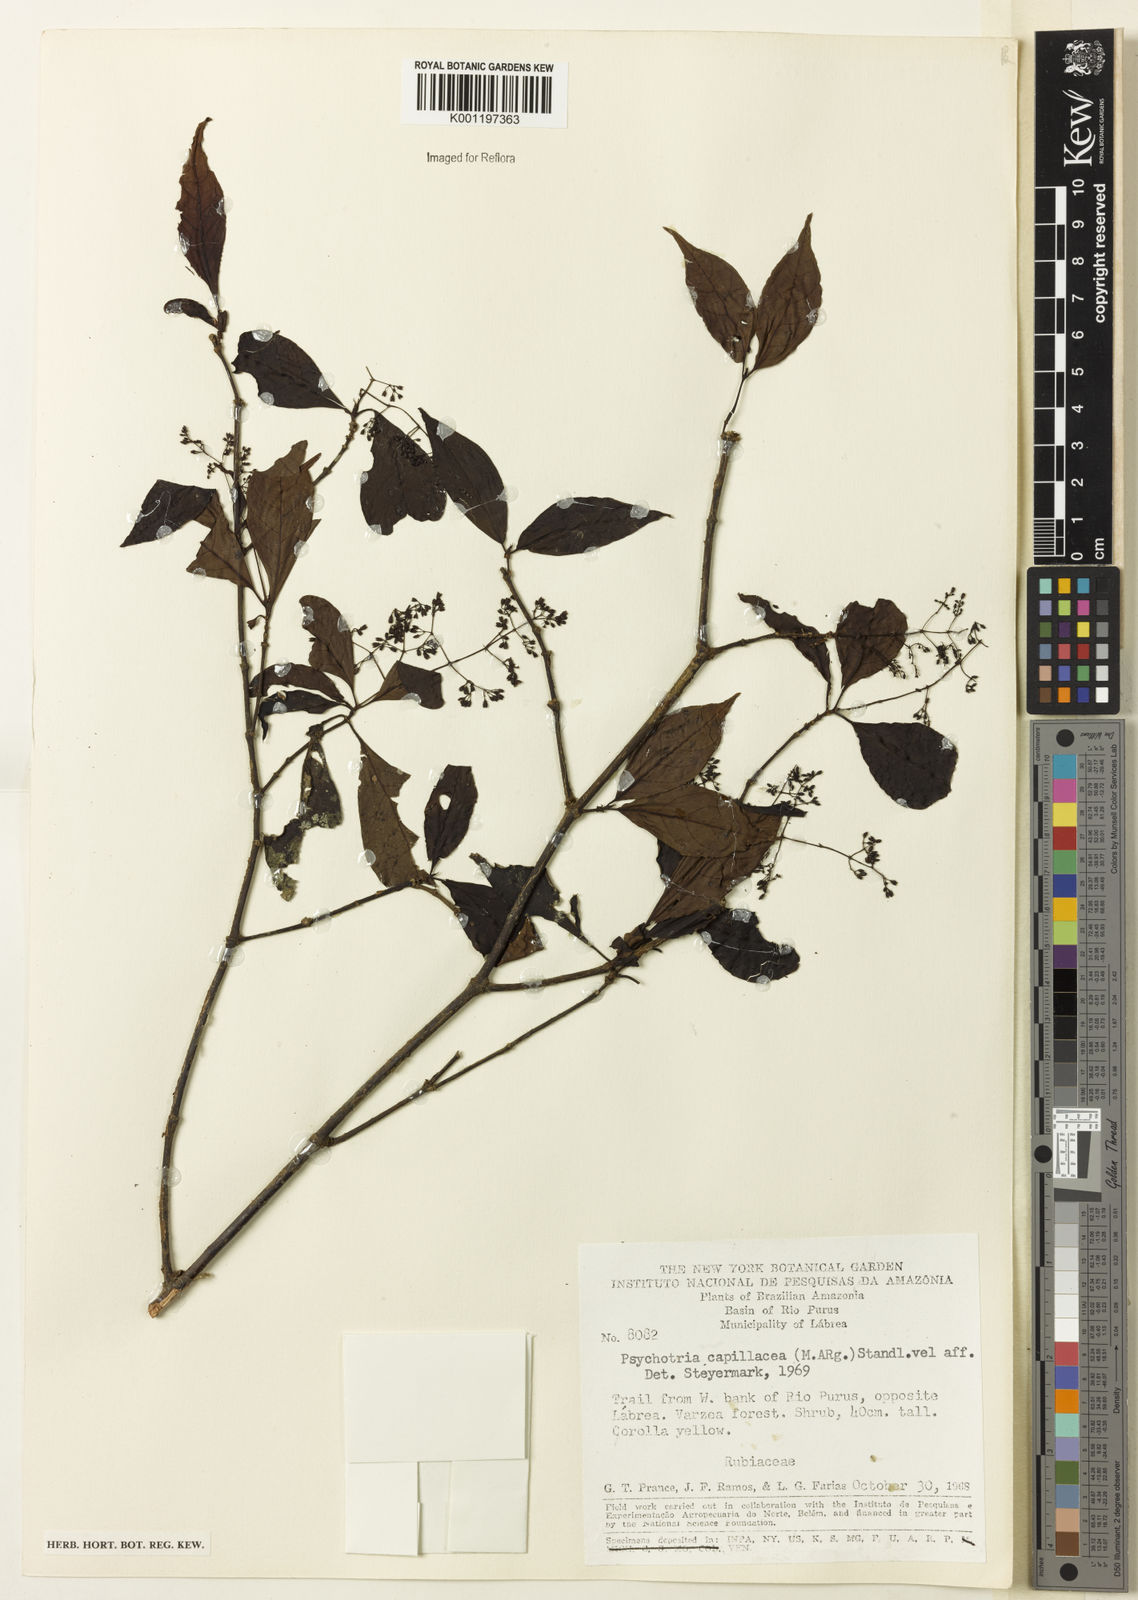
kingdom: Plantae
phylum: Tracheophyta
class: Magnoliopsida
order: Gentianales
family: Rubiaceae
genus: Psychotria
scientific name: Psychotria
